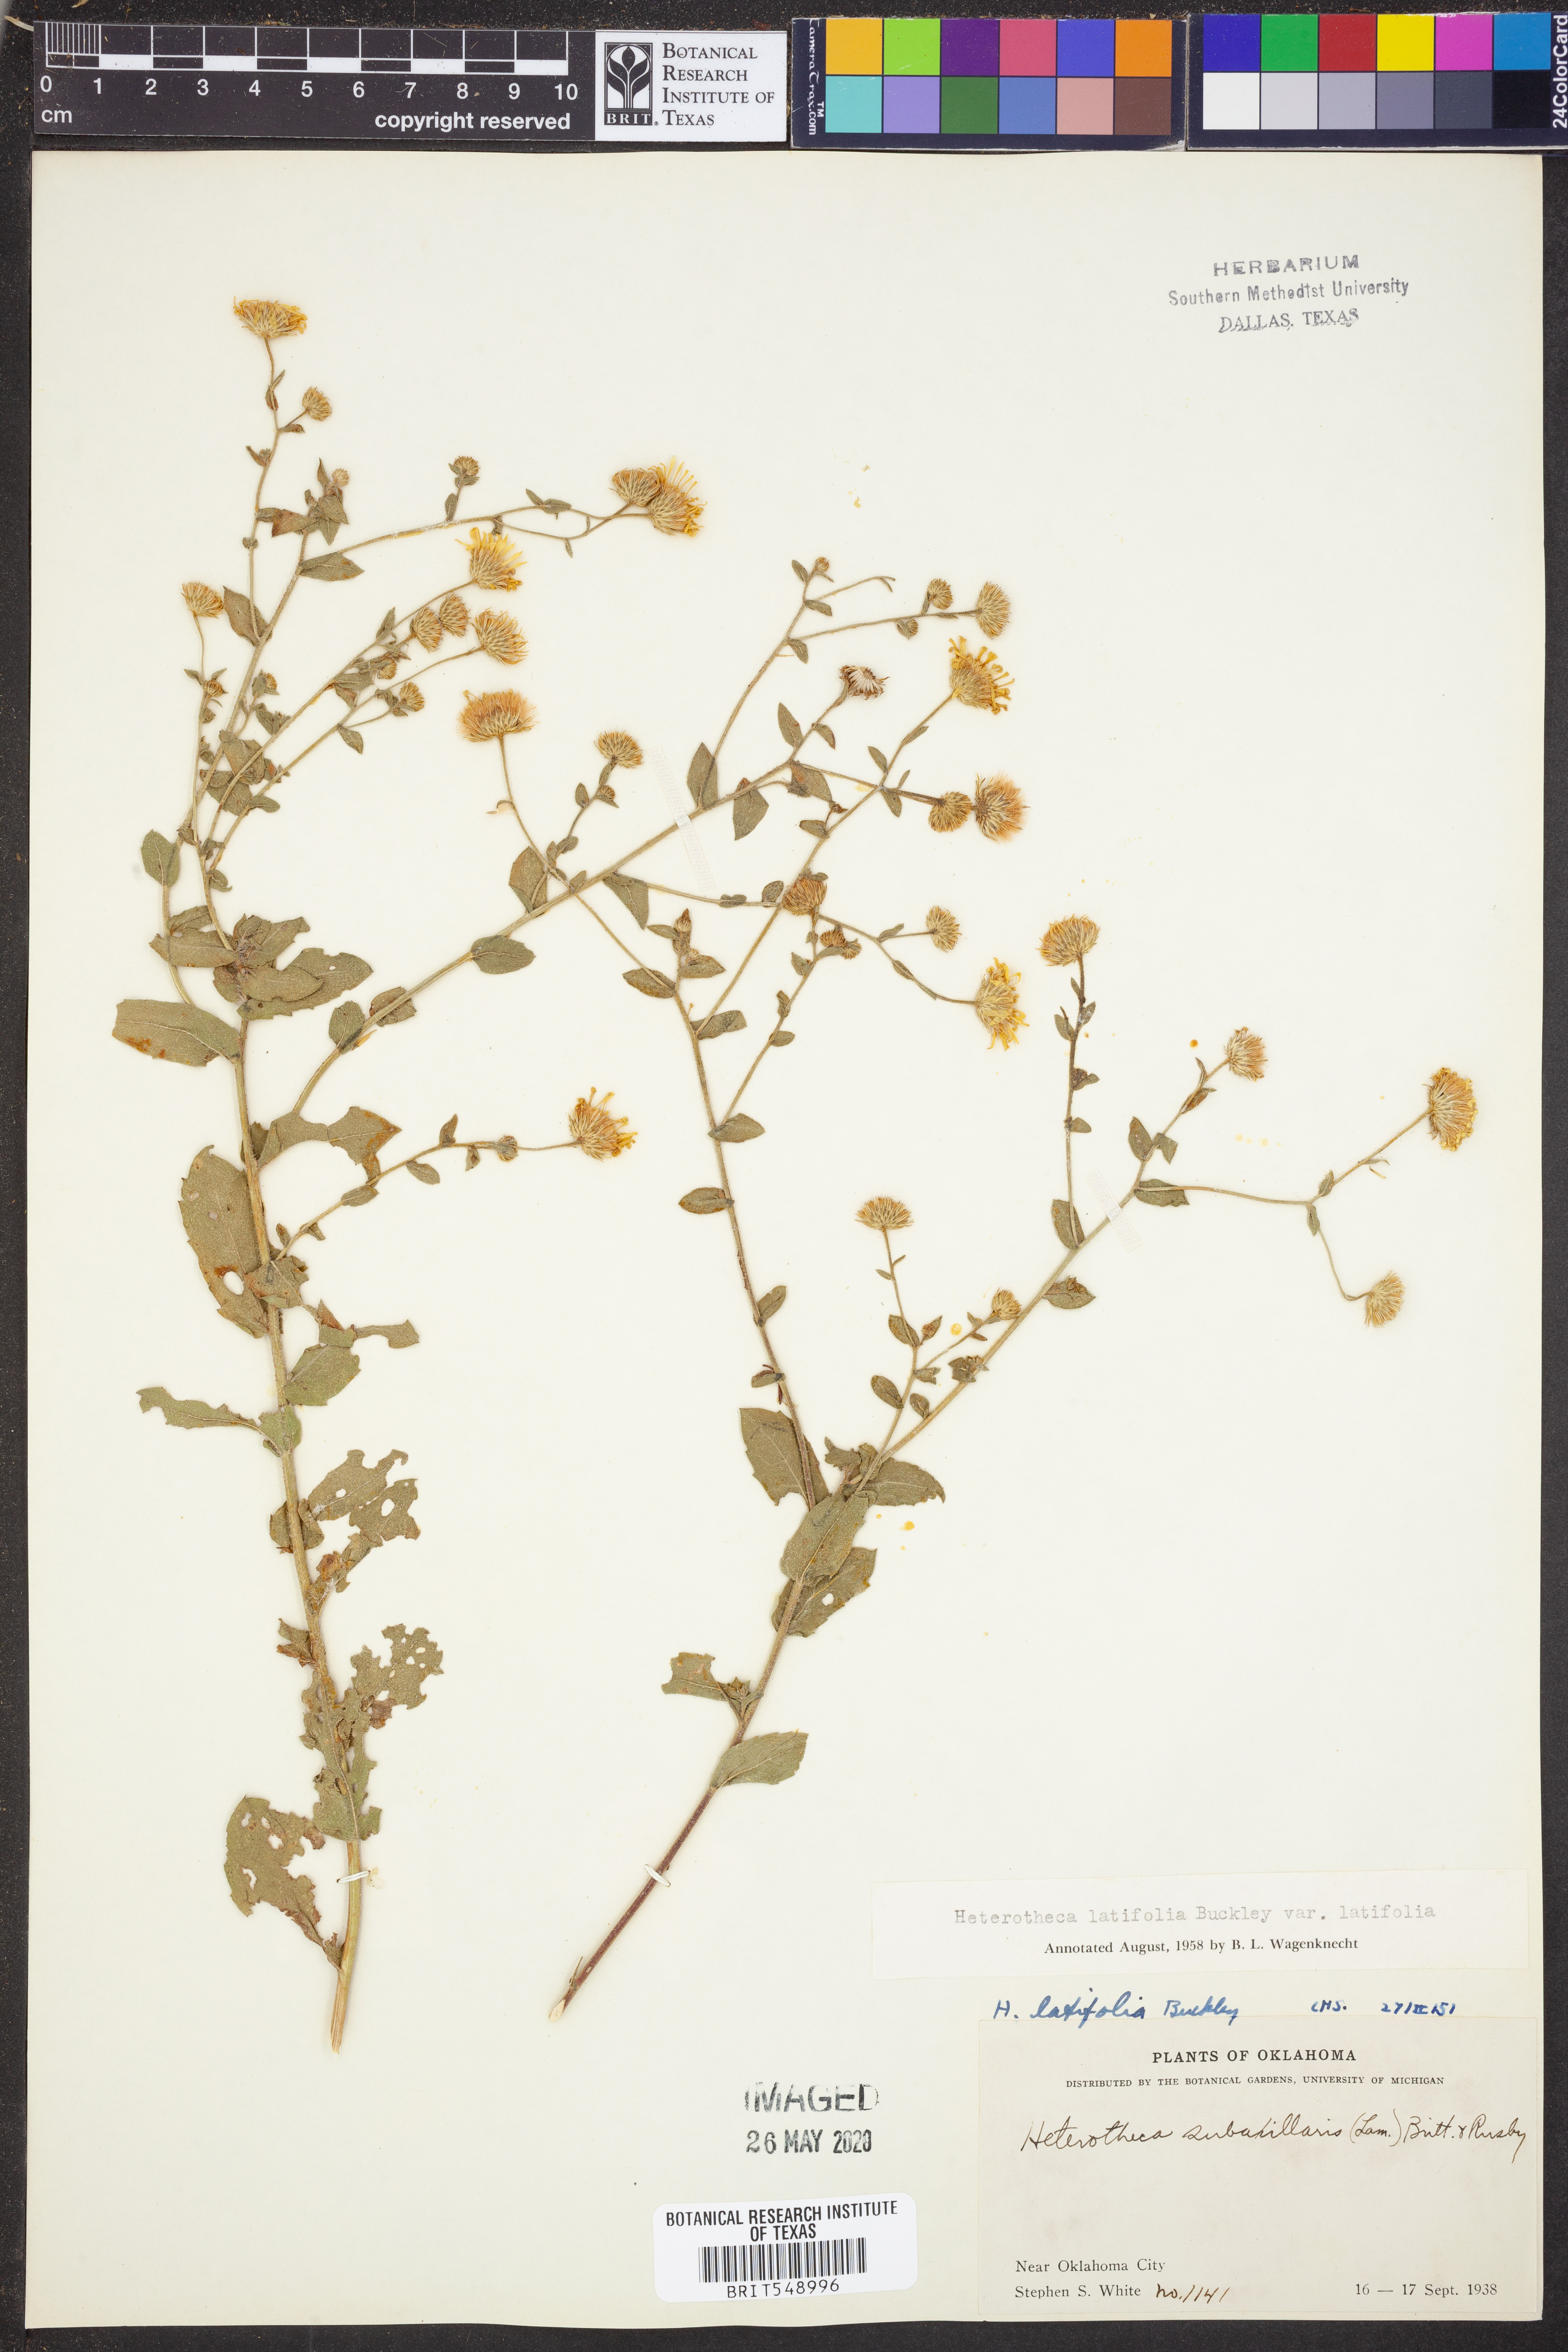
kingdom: Plantae
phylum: Tracheophyta
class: Magnoliopsida
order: Asterales
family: Asteraceae
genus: Heterotheca
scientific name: Heterotheca subaxillaris
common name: Camphorweed
